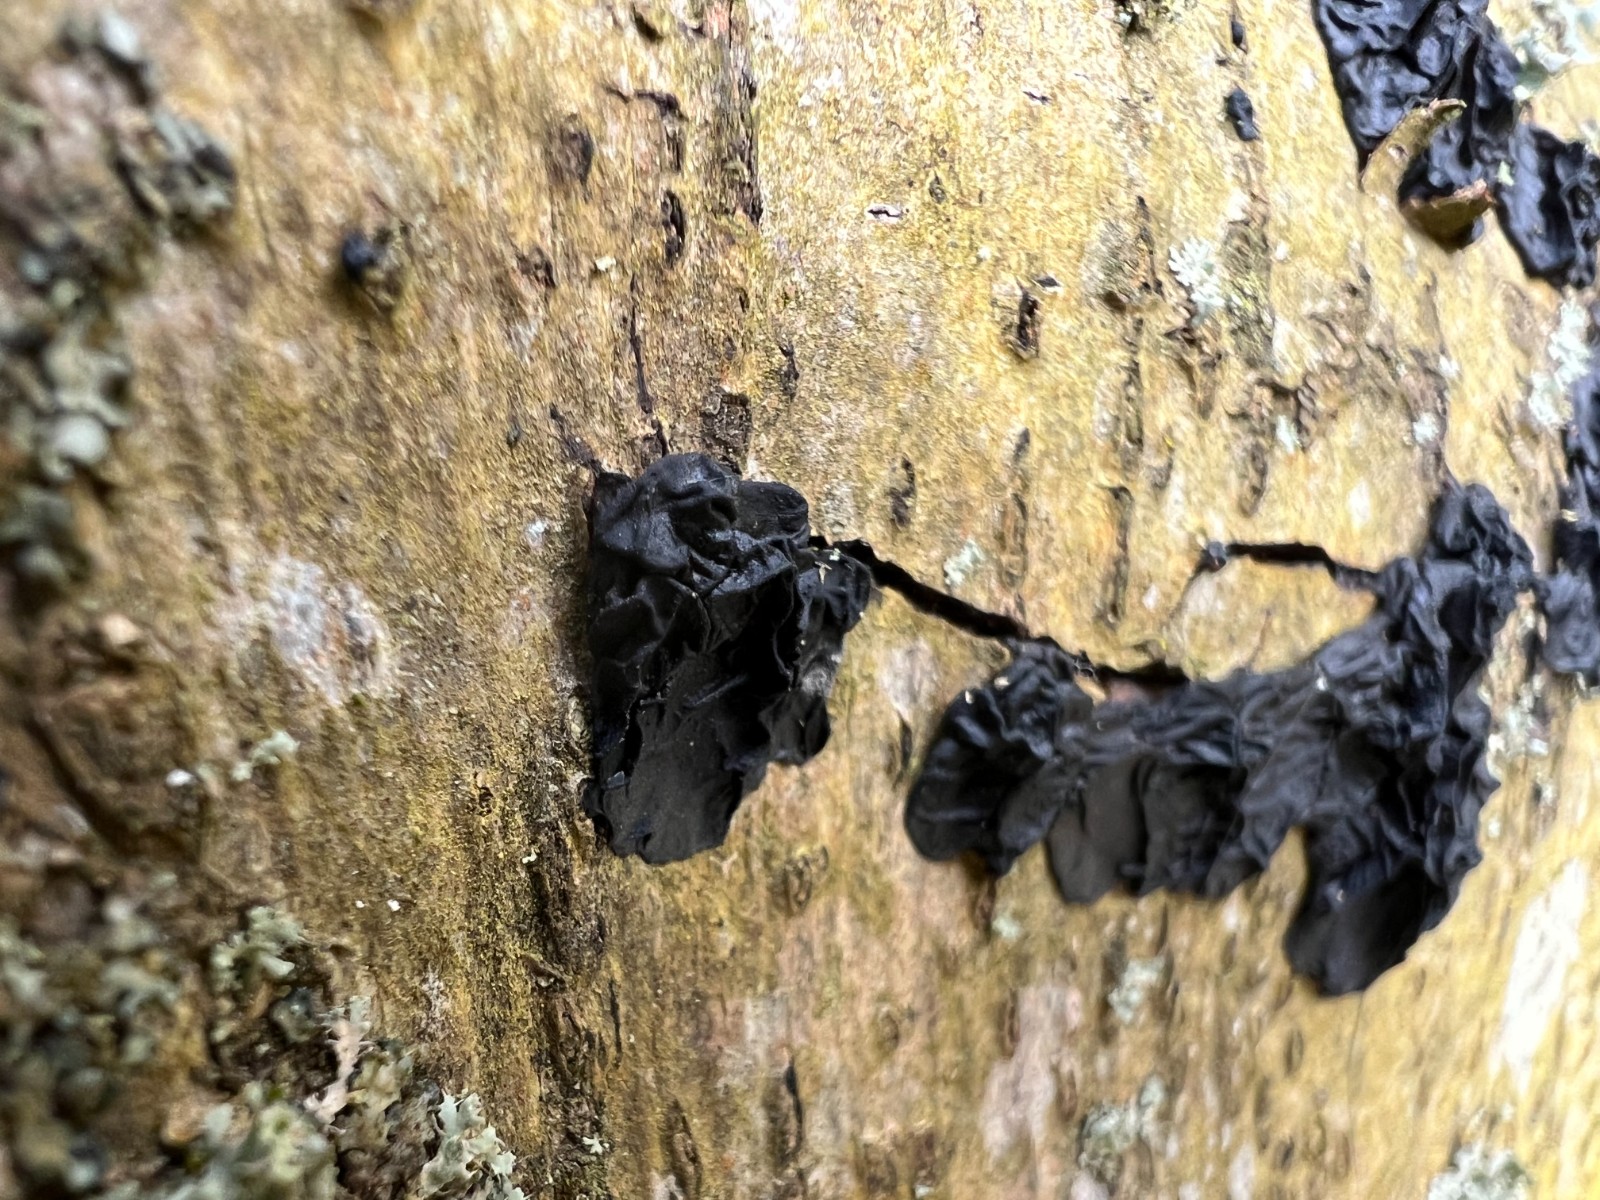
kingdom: Fungi
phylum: Basidiomycota
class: Agaricomycetes
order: Auriculariales
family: Auriculariaceae
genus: Exidia
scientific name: Exidia nigricans
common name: almindelig bævretop
